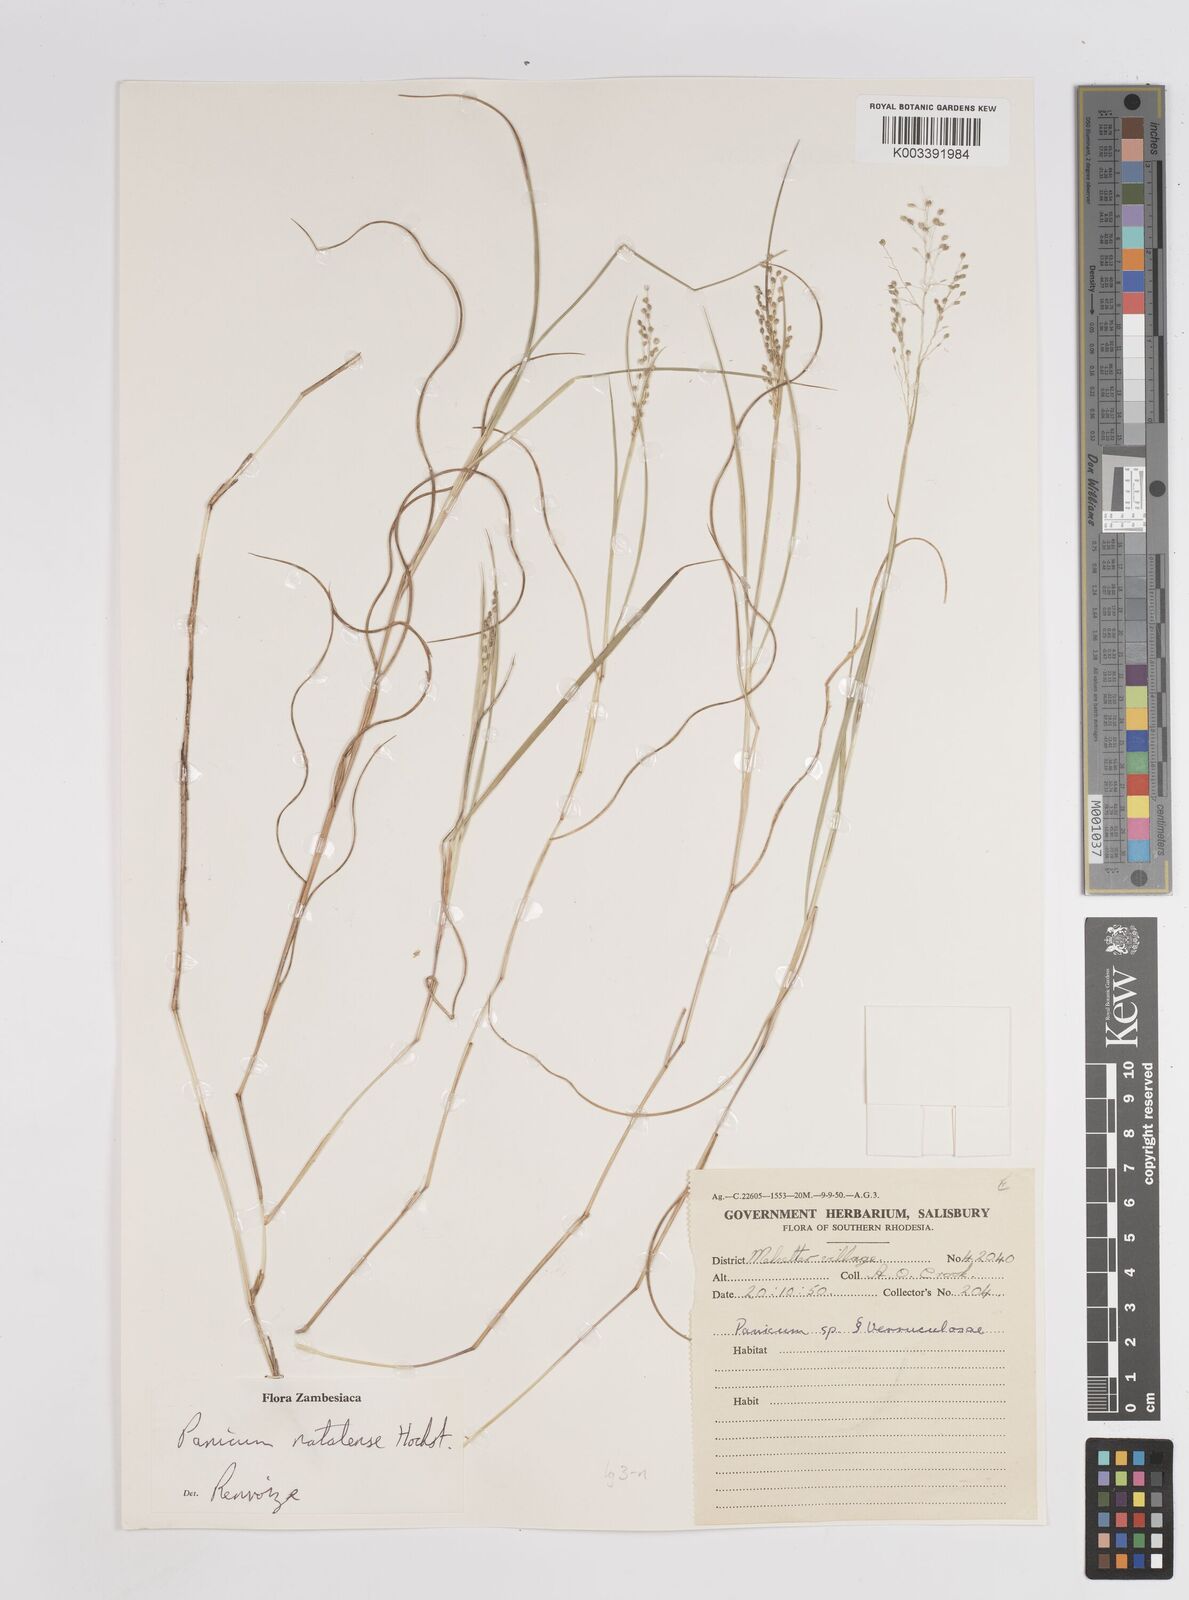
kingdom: Plantae
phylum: Tracheophyta
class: Liliopsida
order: Poales
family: Poaceae
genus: Trichanthecium
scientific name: Trichanthecium natalense
